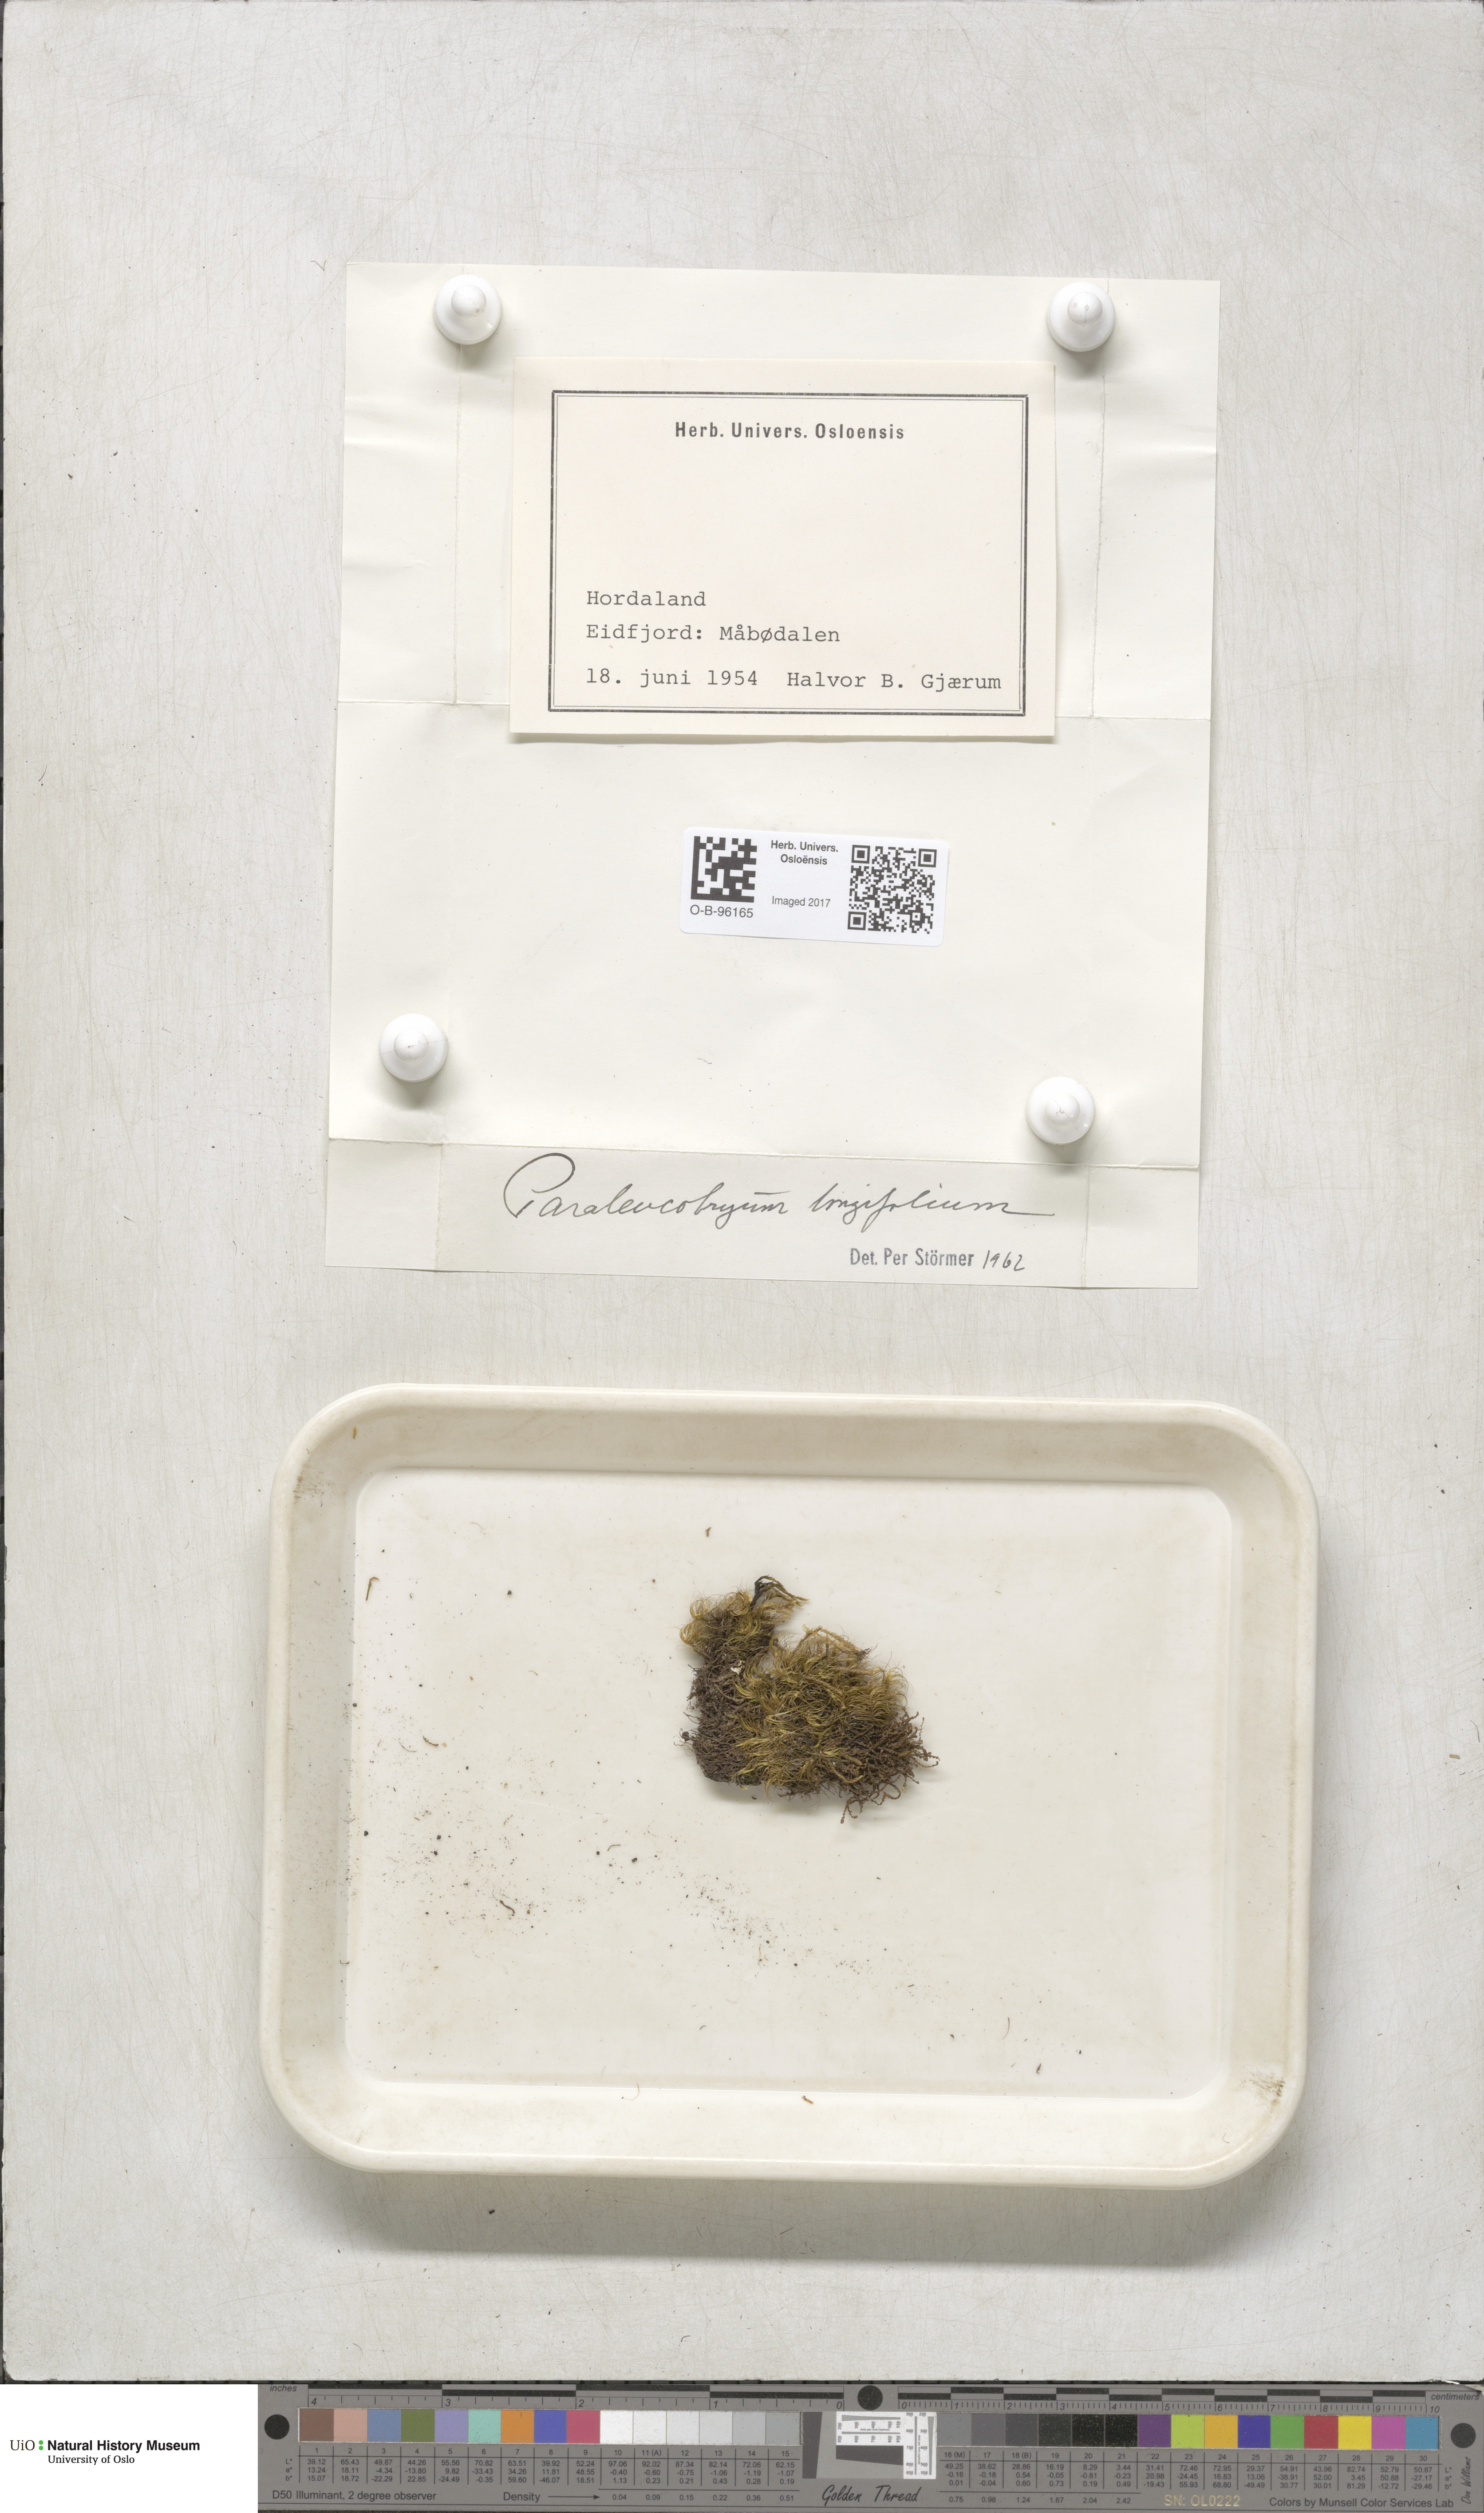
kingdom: Plantae
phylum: Bryophyta
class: Bryopsida
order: Dicranales
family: Dicranaceae
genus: Paraleucobryum
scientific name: Paraleucobryum longifolium
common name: Long-leaved fork moss
